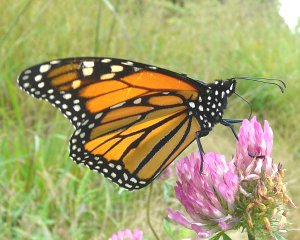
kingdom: Animalia
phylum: Arthropoda
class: Insecta
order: Lepidoptera
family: Nymphalidae
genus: Danaus
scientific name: Danaus plexippus
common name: Monarch
